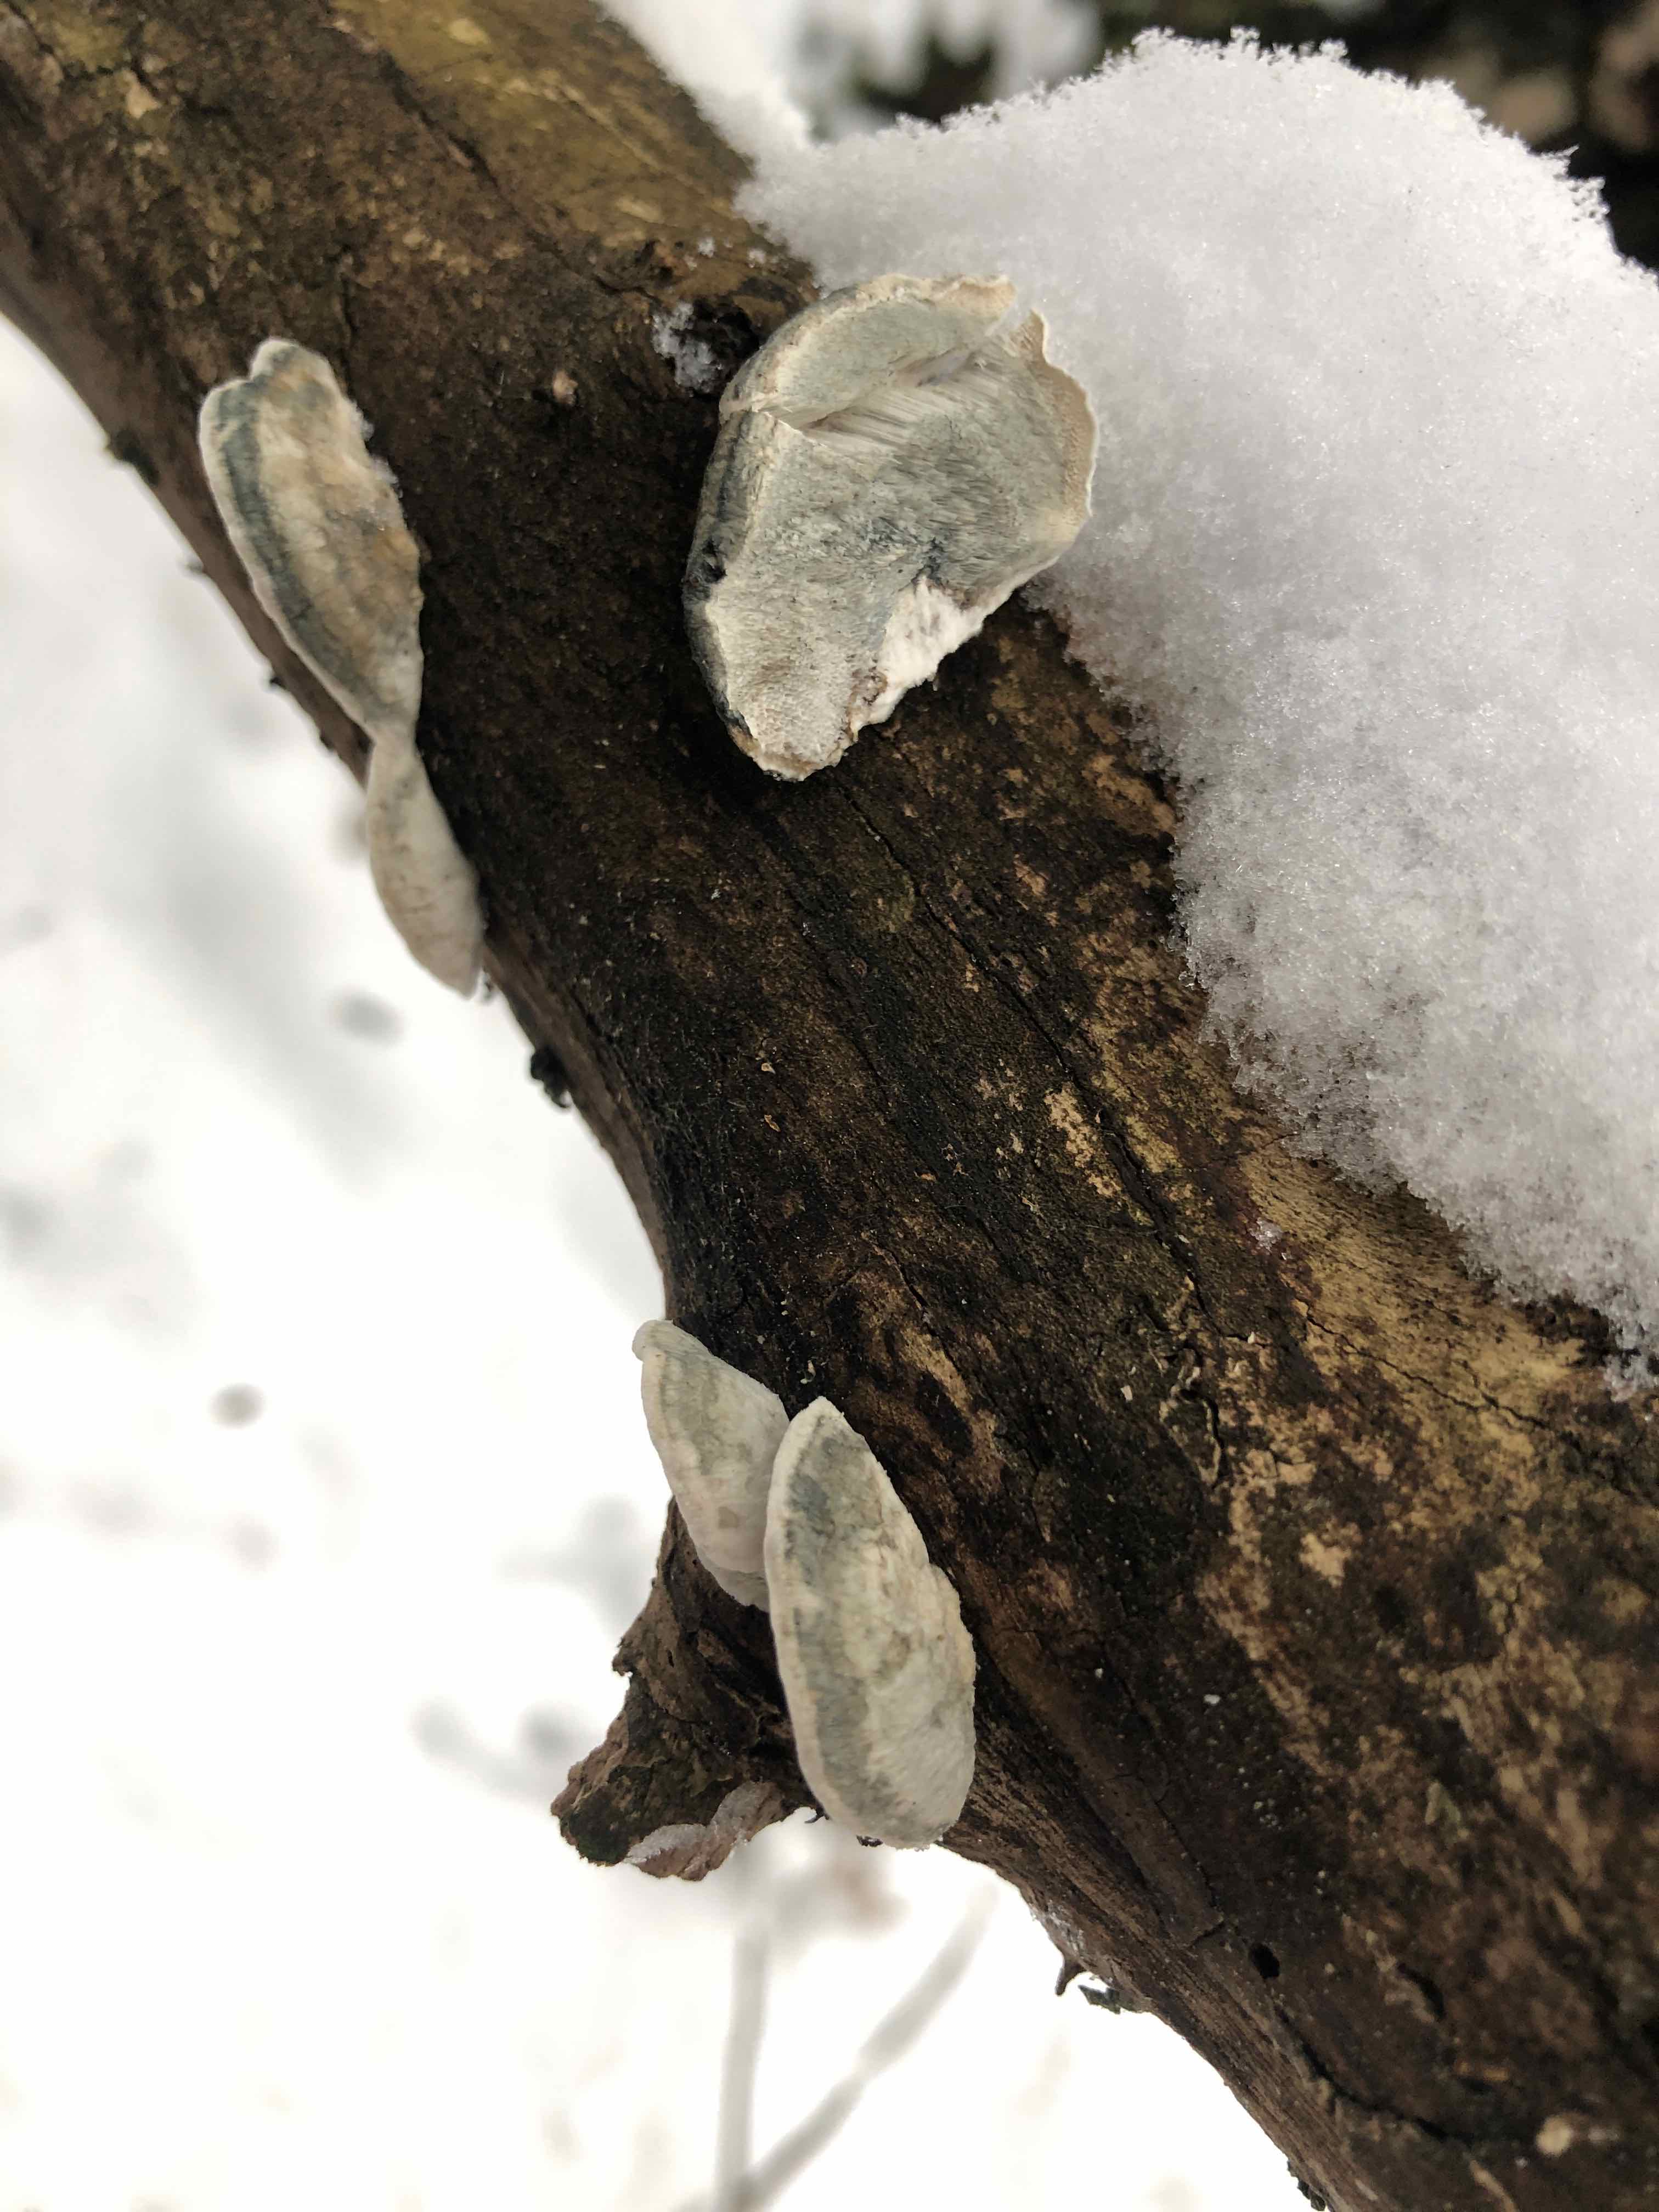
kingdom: Fungi
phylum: Basidiomycota
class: Agaricomycetes
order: Polyporales
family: Polyporaceae
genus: Cyanosporus
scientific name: Cyanosporus alni
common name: blegblå kødporesvamp
